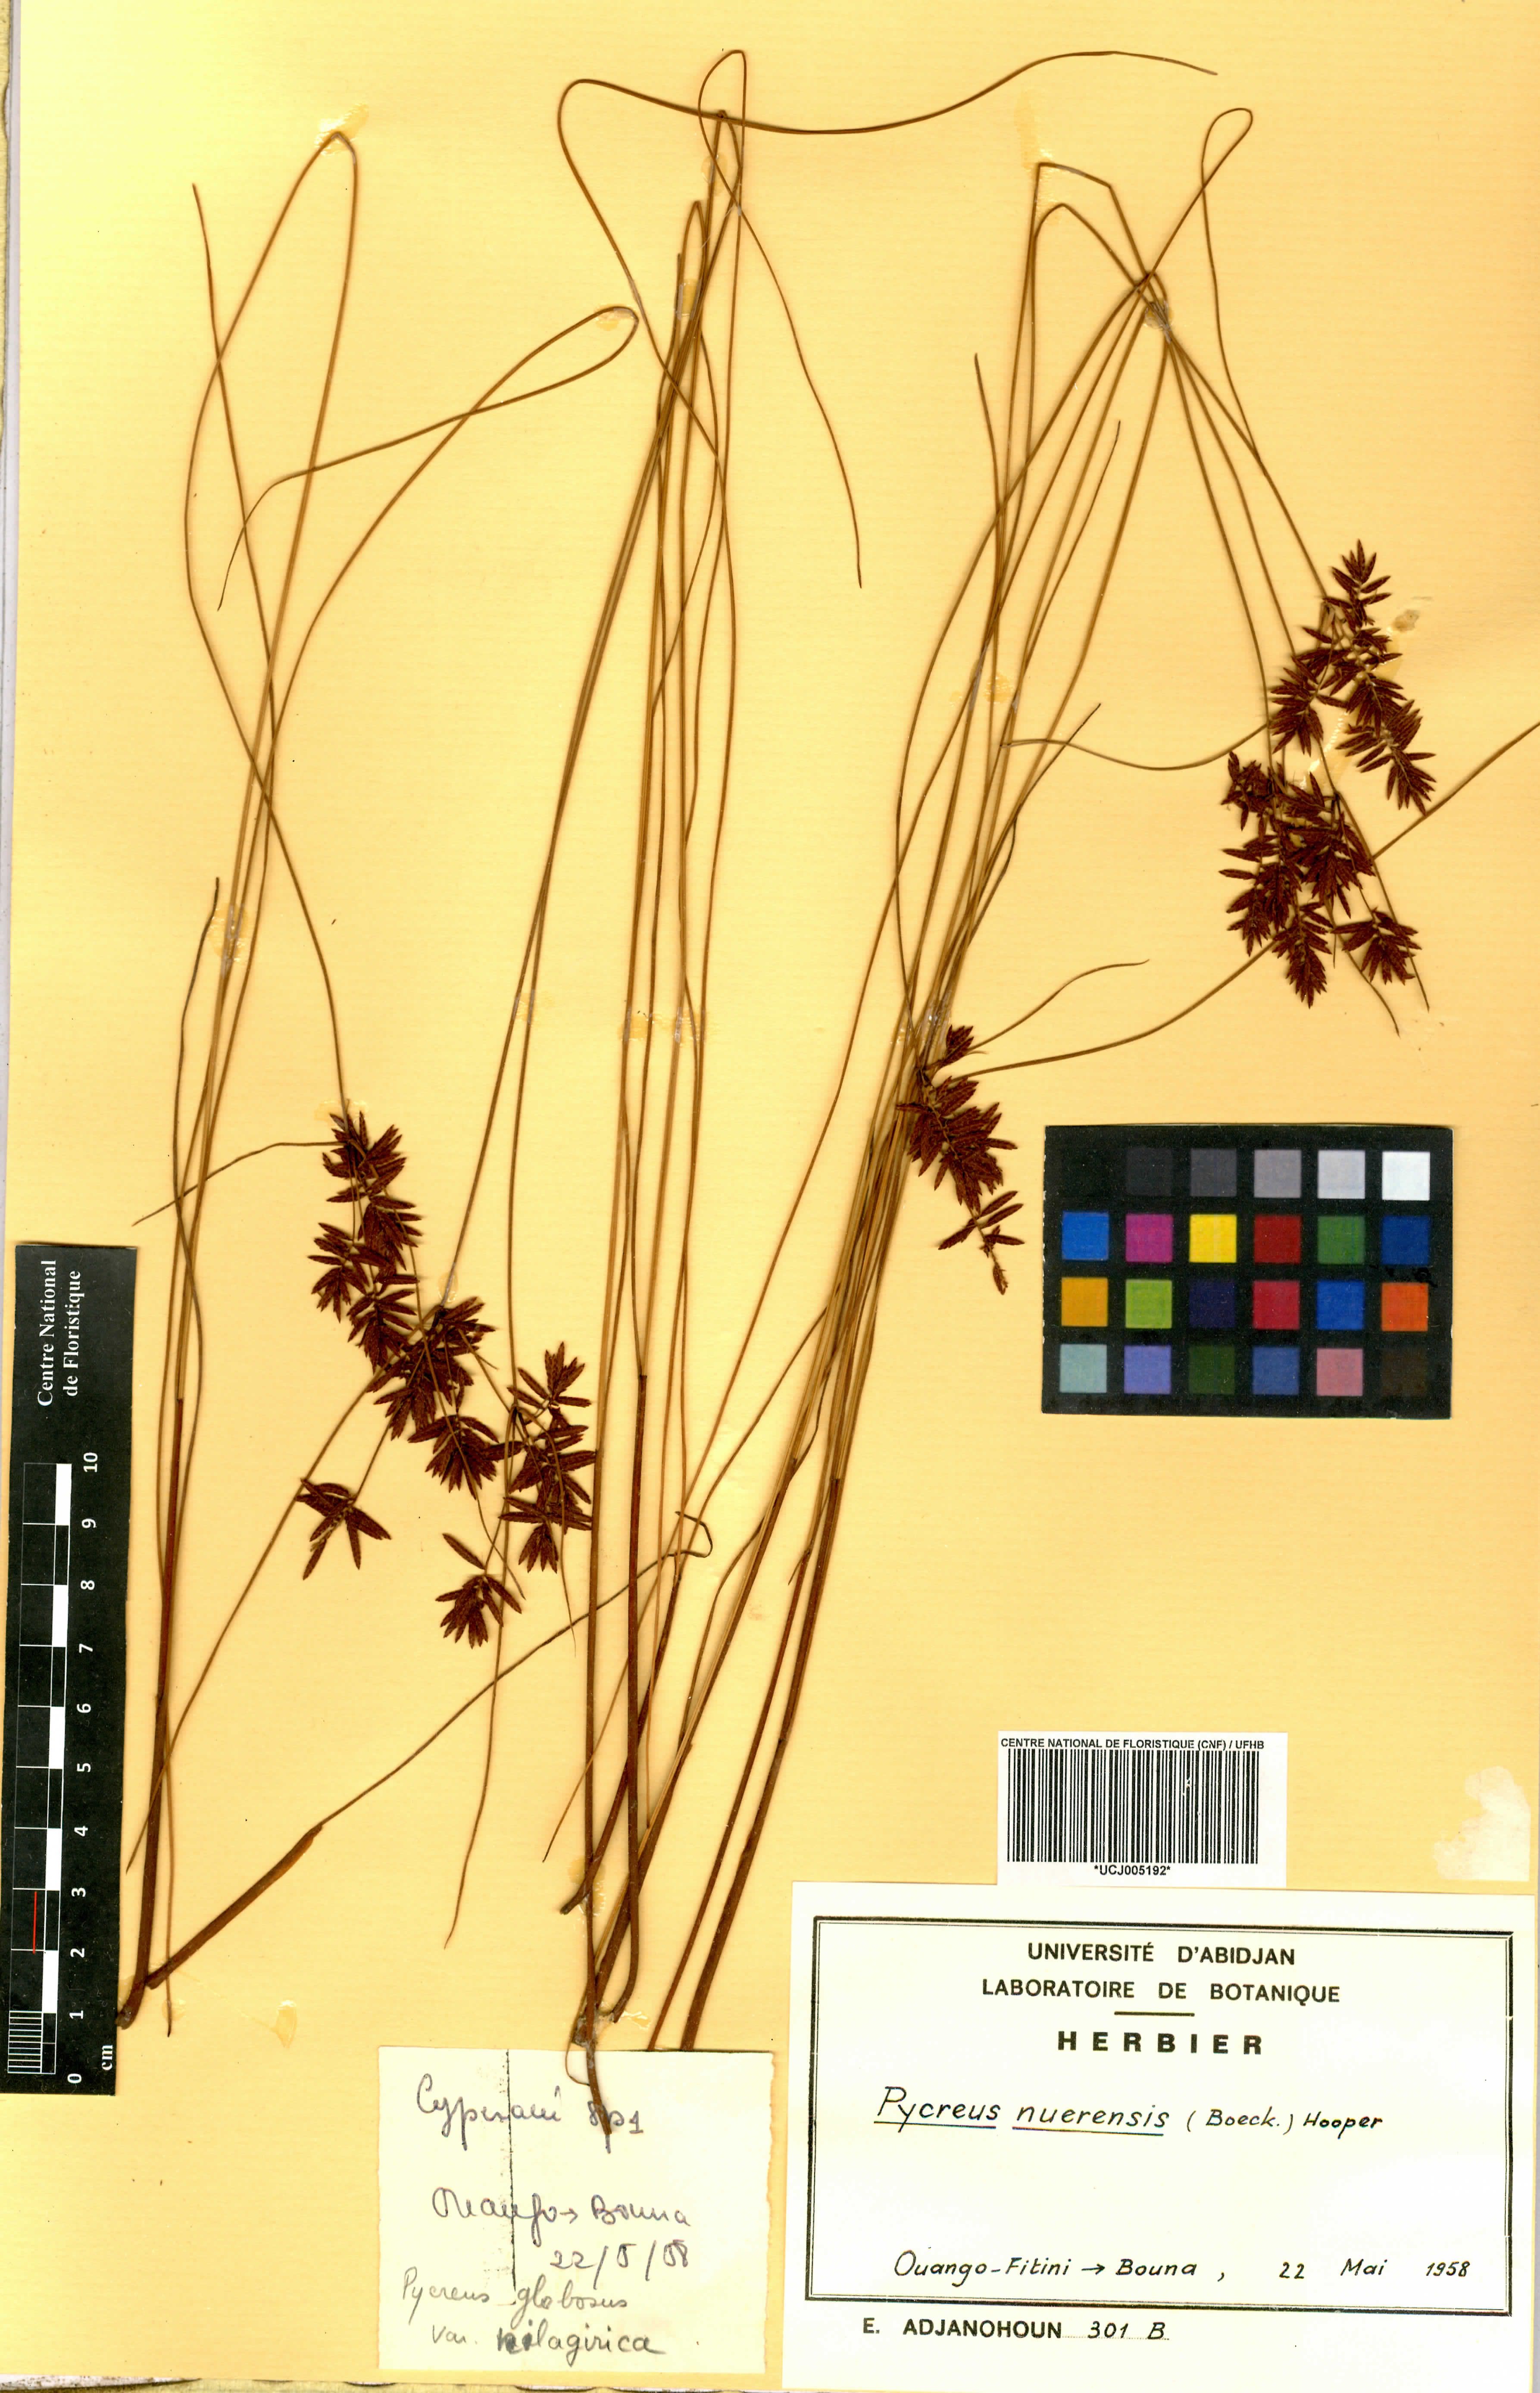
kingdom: Plantae
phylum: Tracheophyta
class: Liliopsida
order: Poales
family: Cyperaceae
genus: Cyperus
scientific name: Cyperus nuerensis
